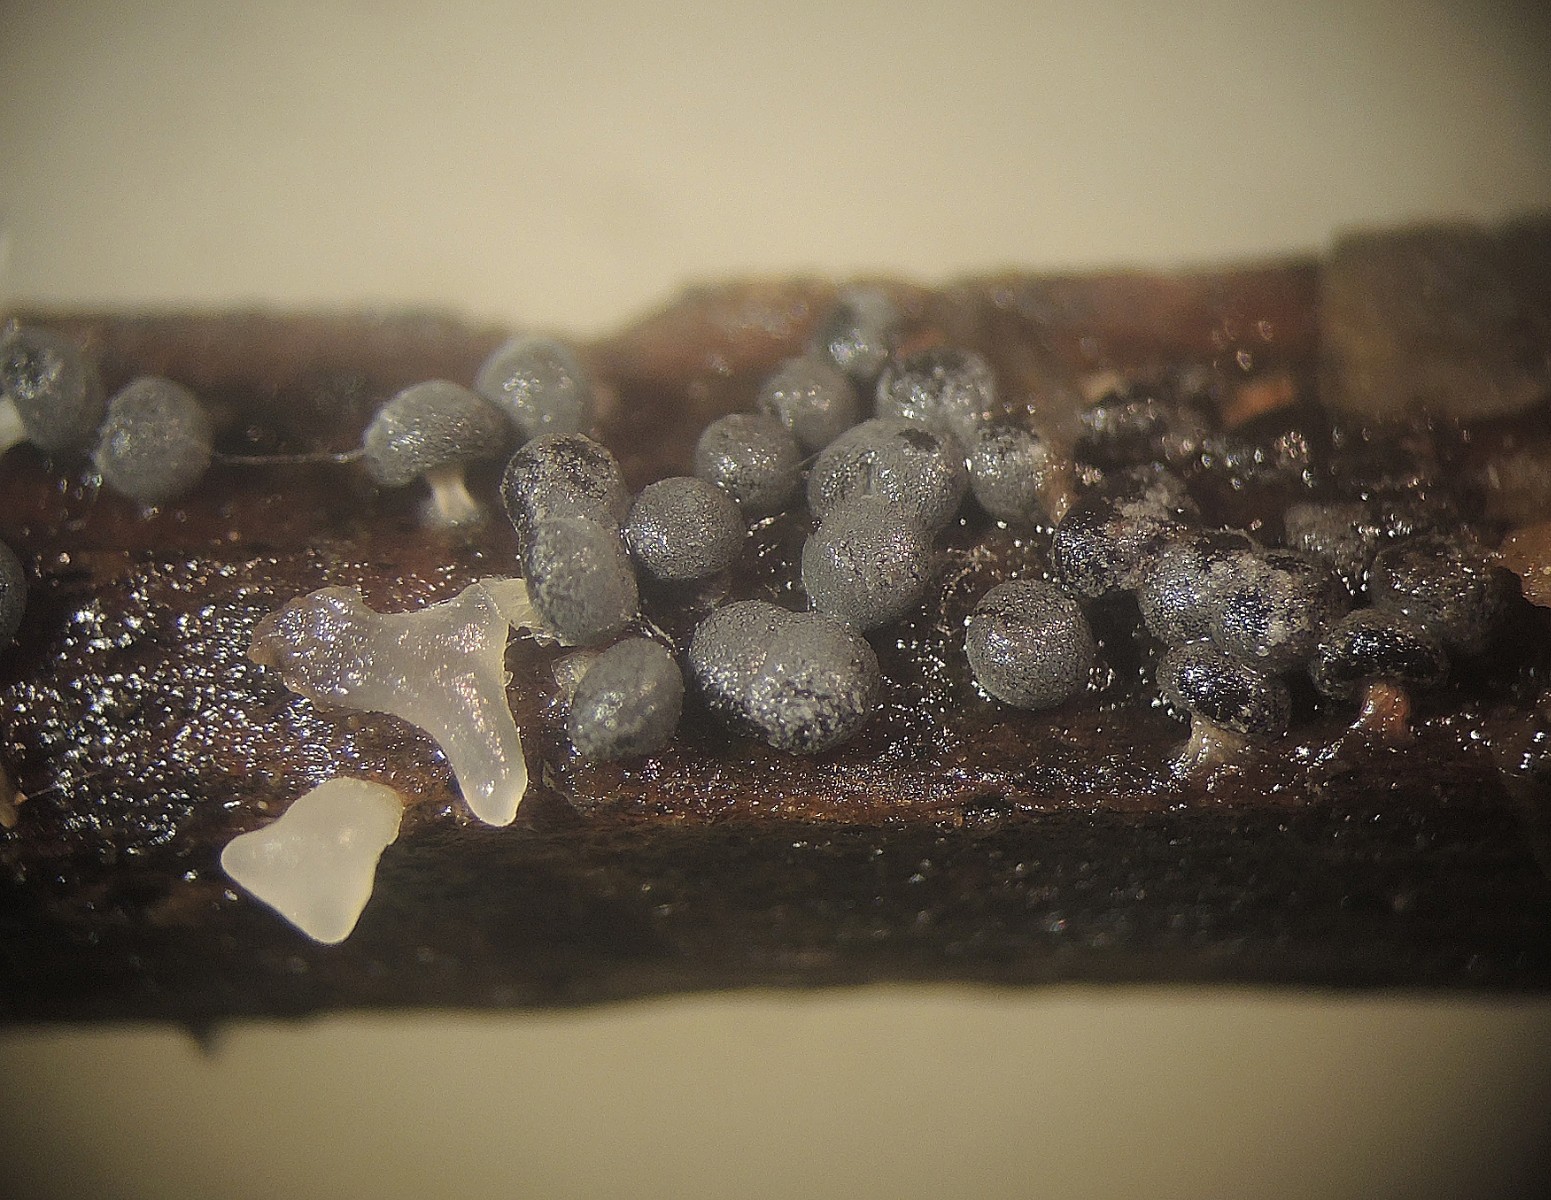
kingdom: Protozoa
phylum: Mycetozoa
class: Myxomycetes
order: Physarales
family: Didymiaceae
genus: Didymium
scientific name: Didymium squamulosum
